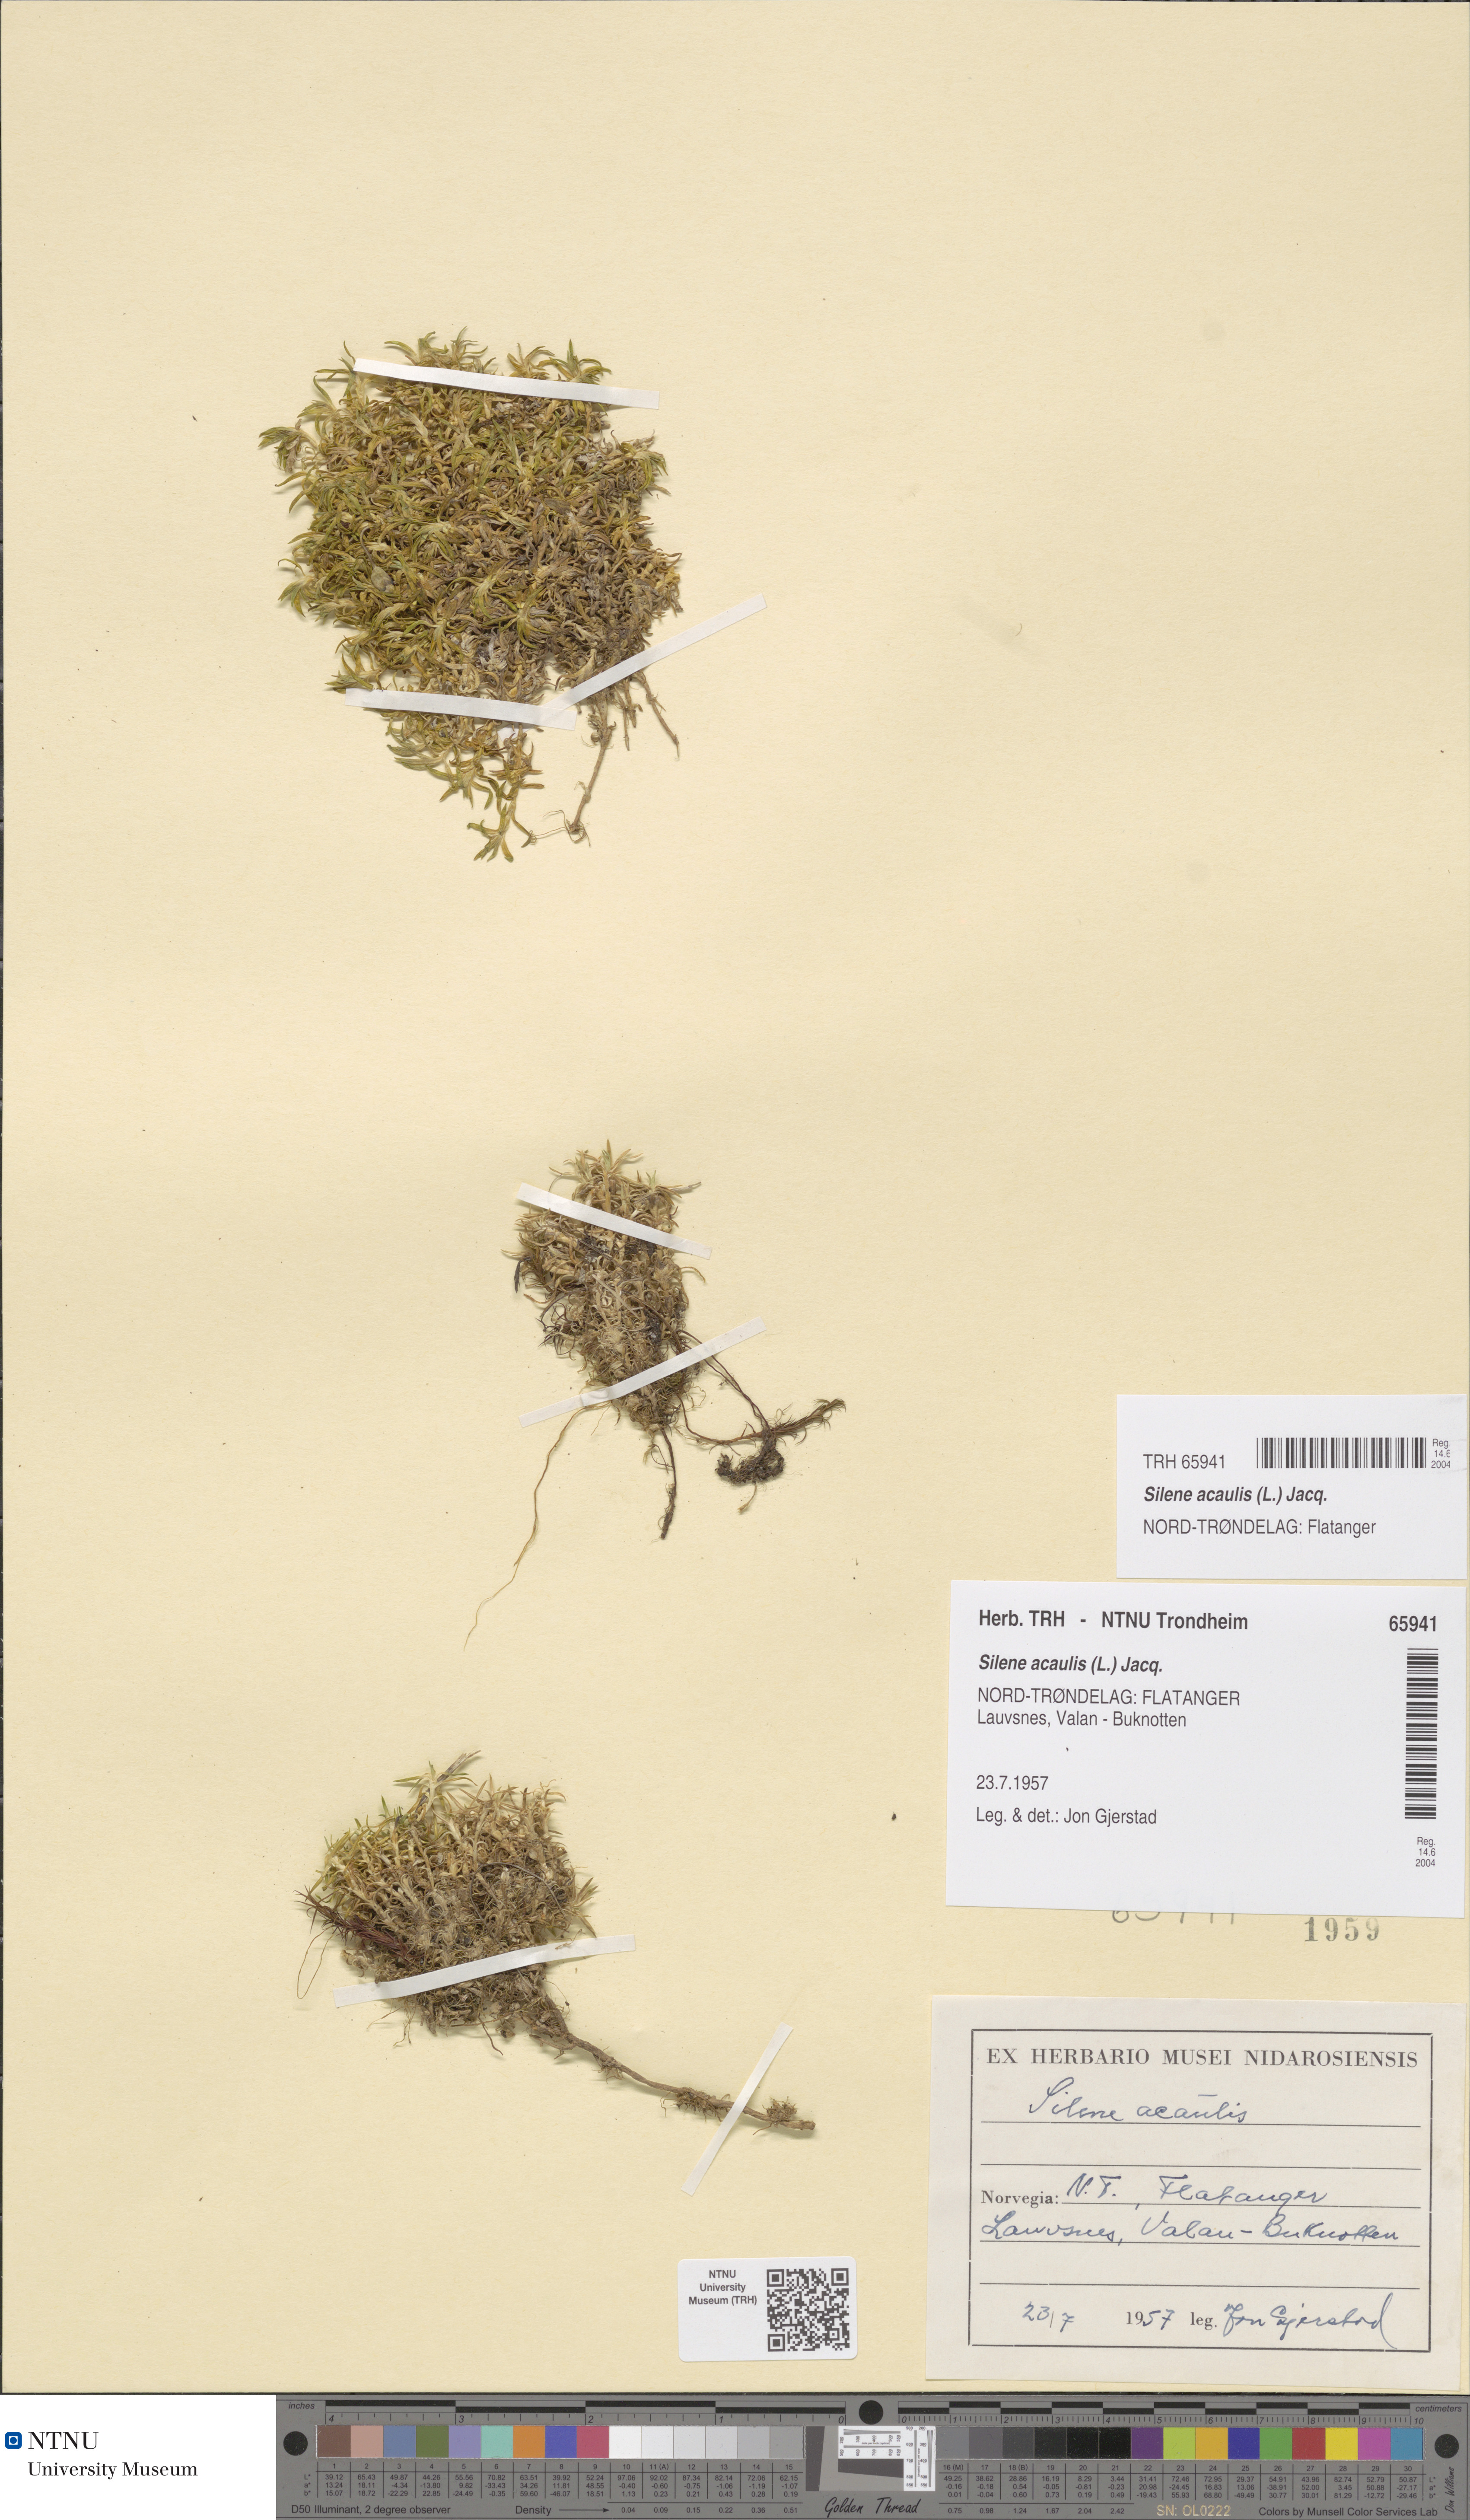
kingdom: Plantae
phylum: Tracheophyta
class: Magnoliopsida
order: Caryophyllales
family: Caryophyllaceae
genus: Silene
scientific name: Silene acaulis
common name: Moss campion
